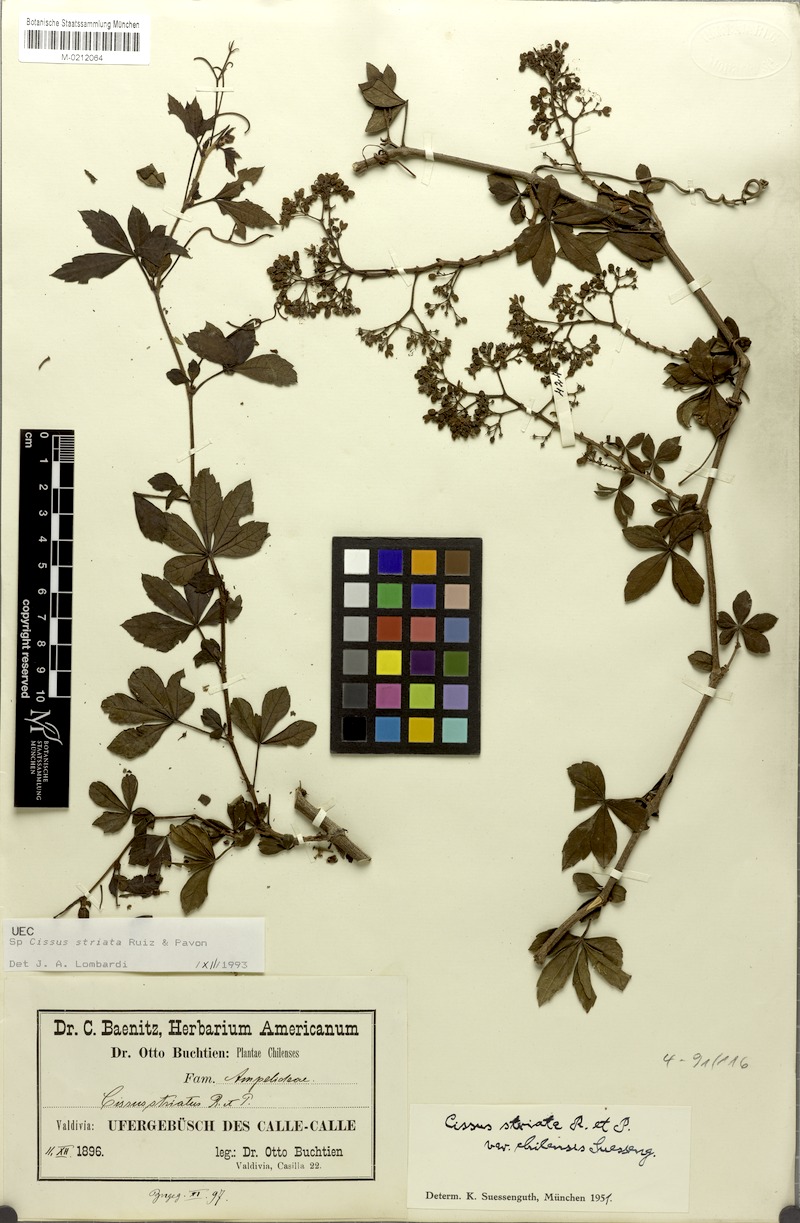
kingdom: Plantae
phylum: Tracheophyta
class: Magnoliopsida
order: Vitales
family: Vitaceae
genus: Clematicissus
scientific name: Clematicissus striata
